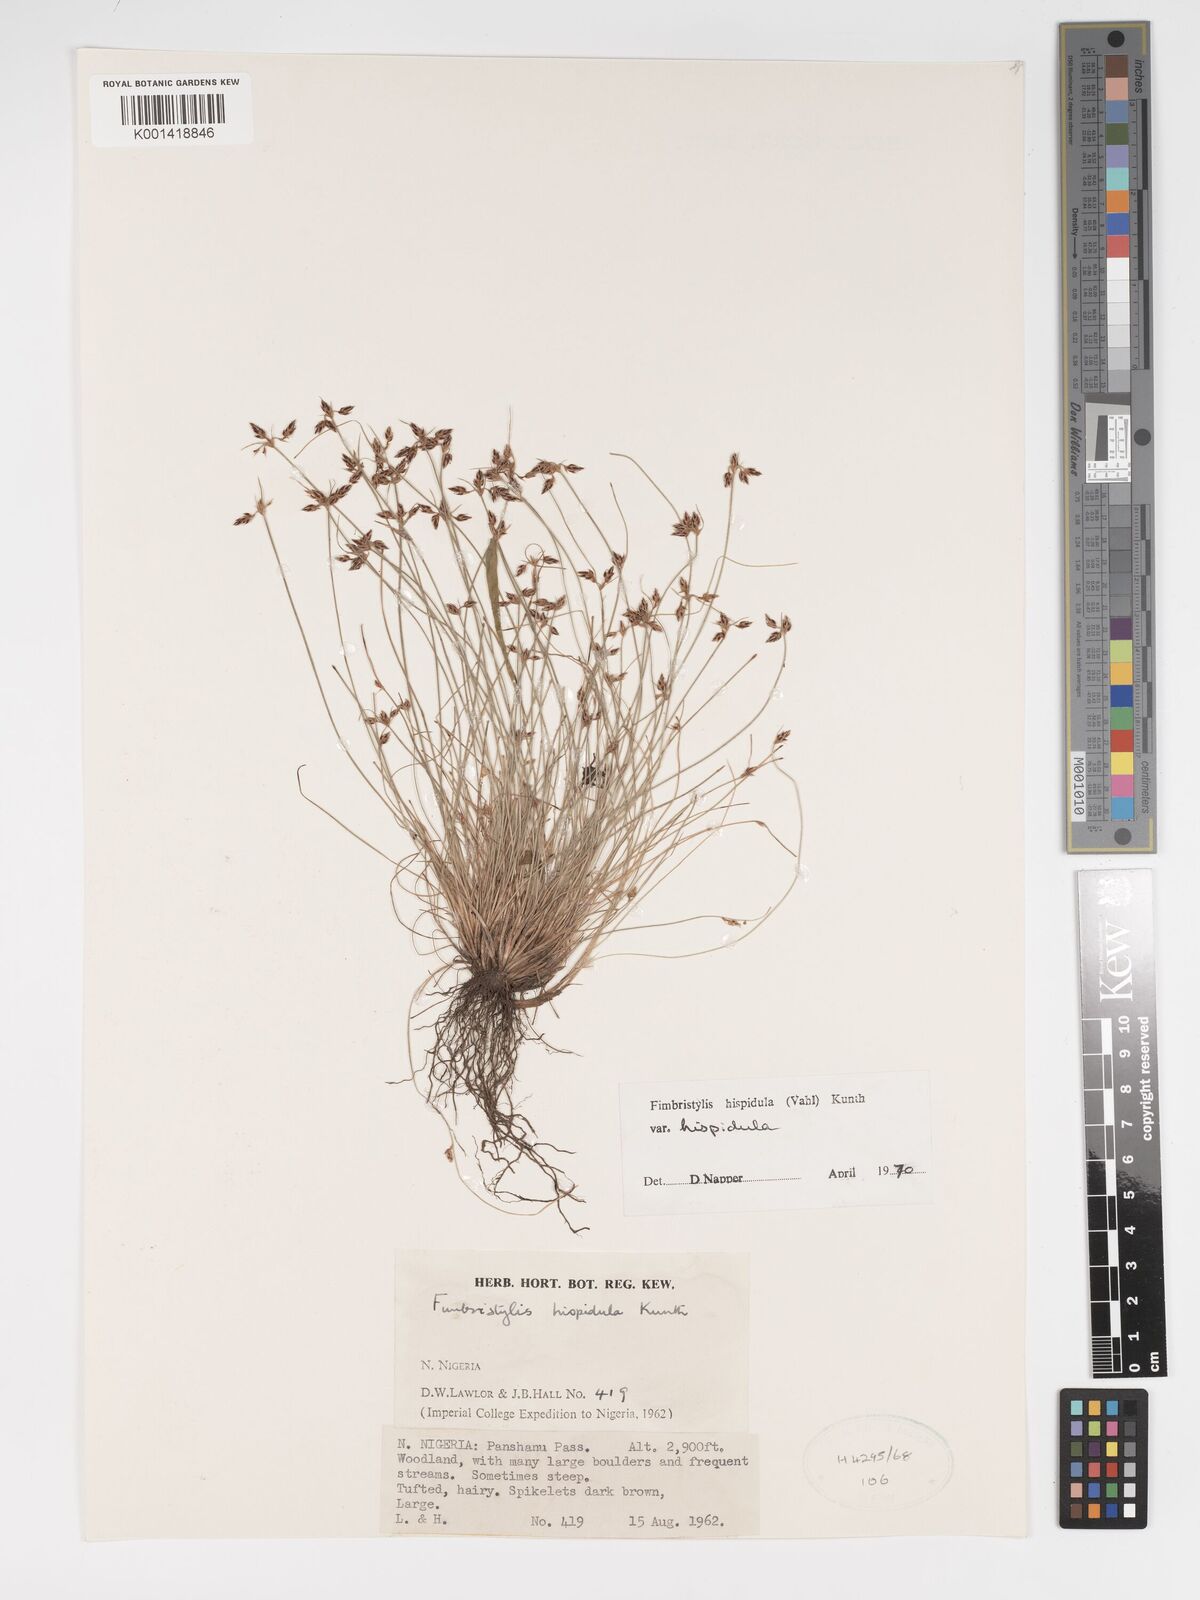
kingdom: Plantae
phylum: Tracheophyta
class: Liliopsida
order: Poales
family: Cyperaceae
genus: Bulbostylis
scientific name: Bulbostylis hispidula
